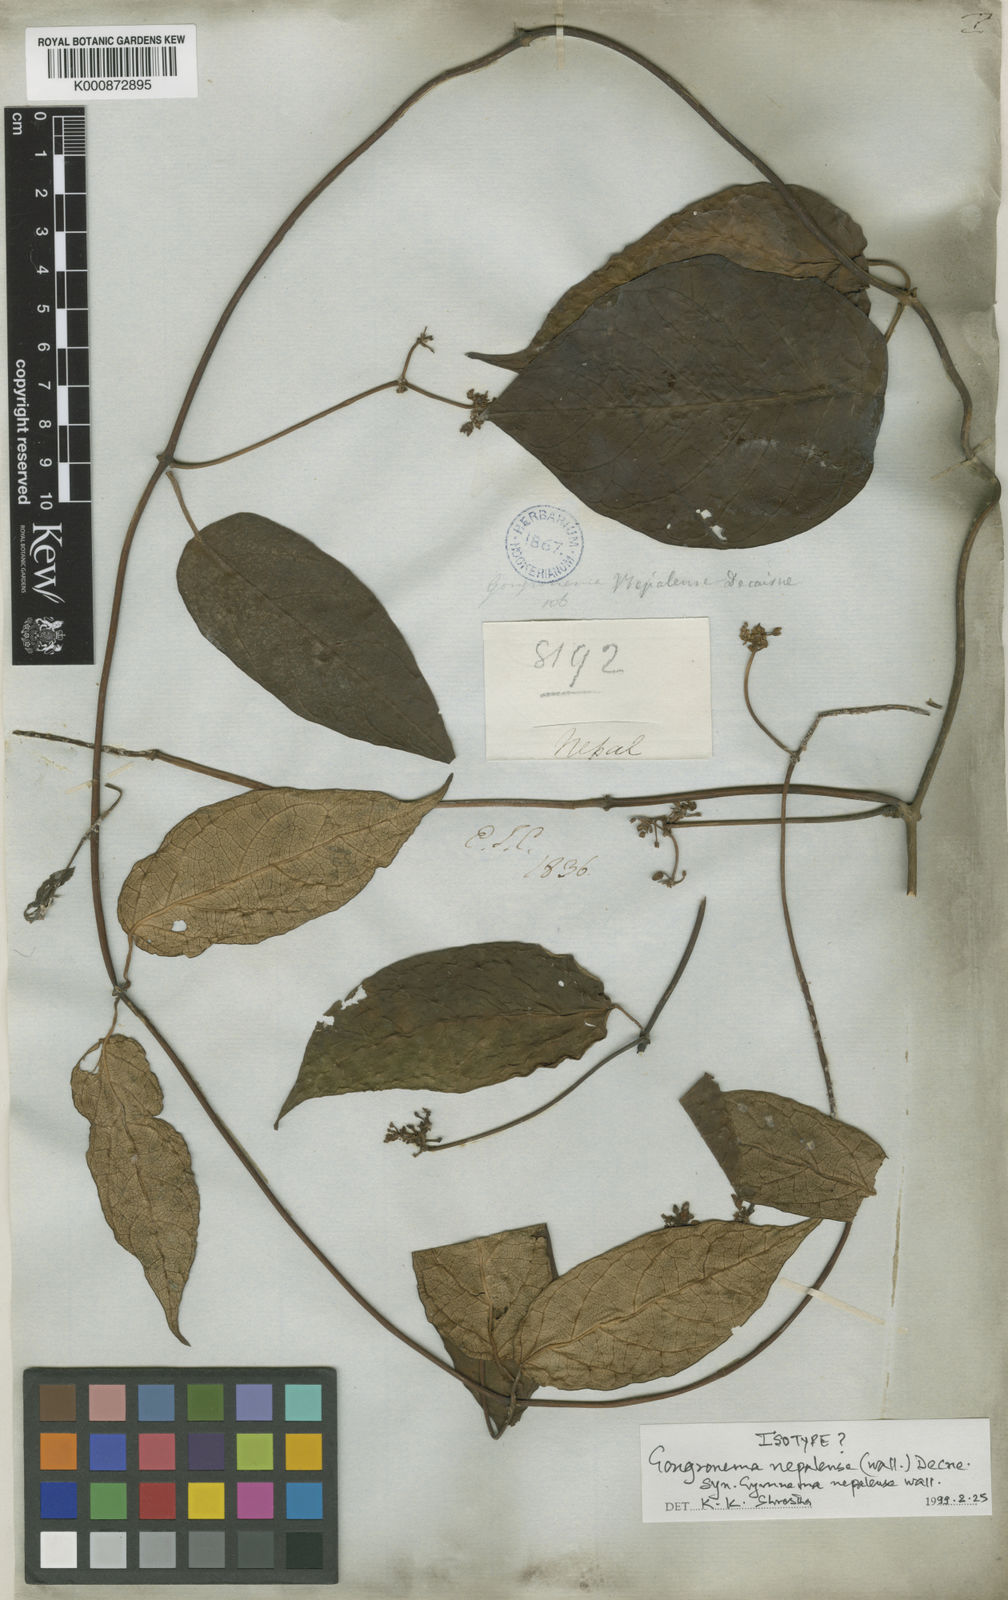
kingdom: Plantae
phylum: Tracheophyta
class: Magnoliopsida
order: Gentianales
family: Apocynaceae
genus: Gongronema
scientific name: Gongronema
